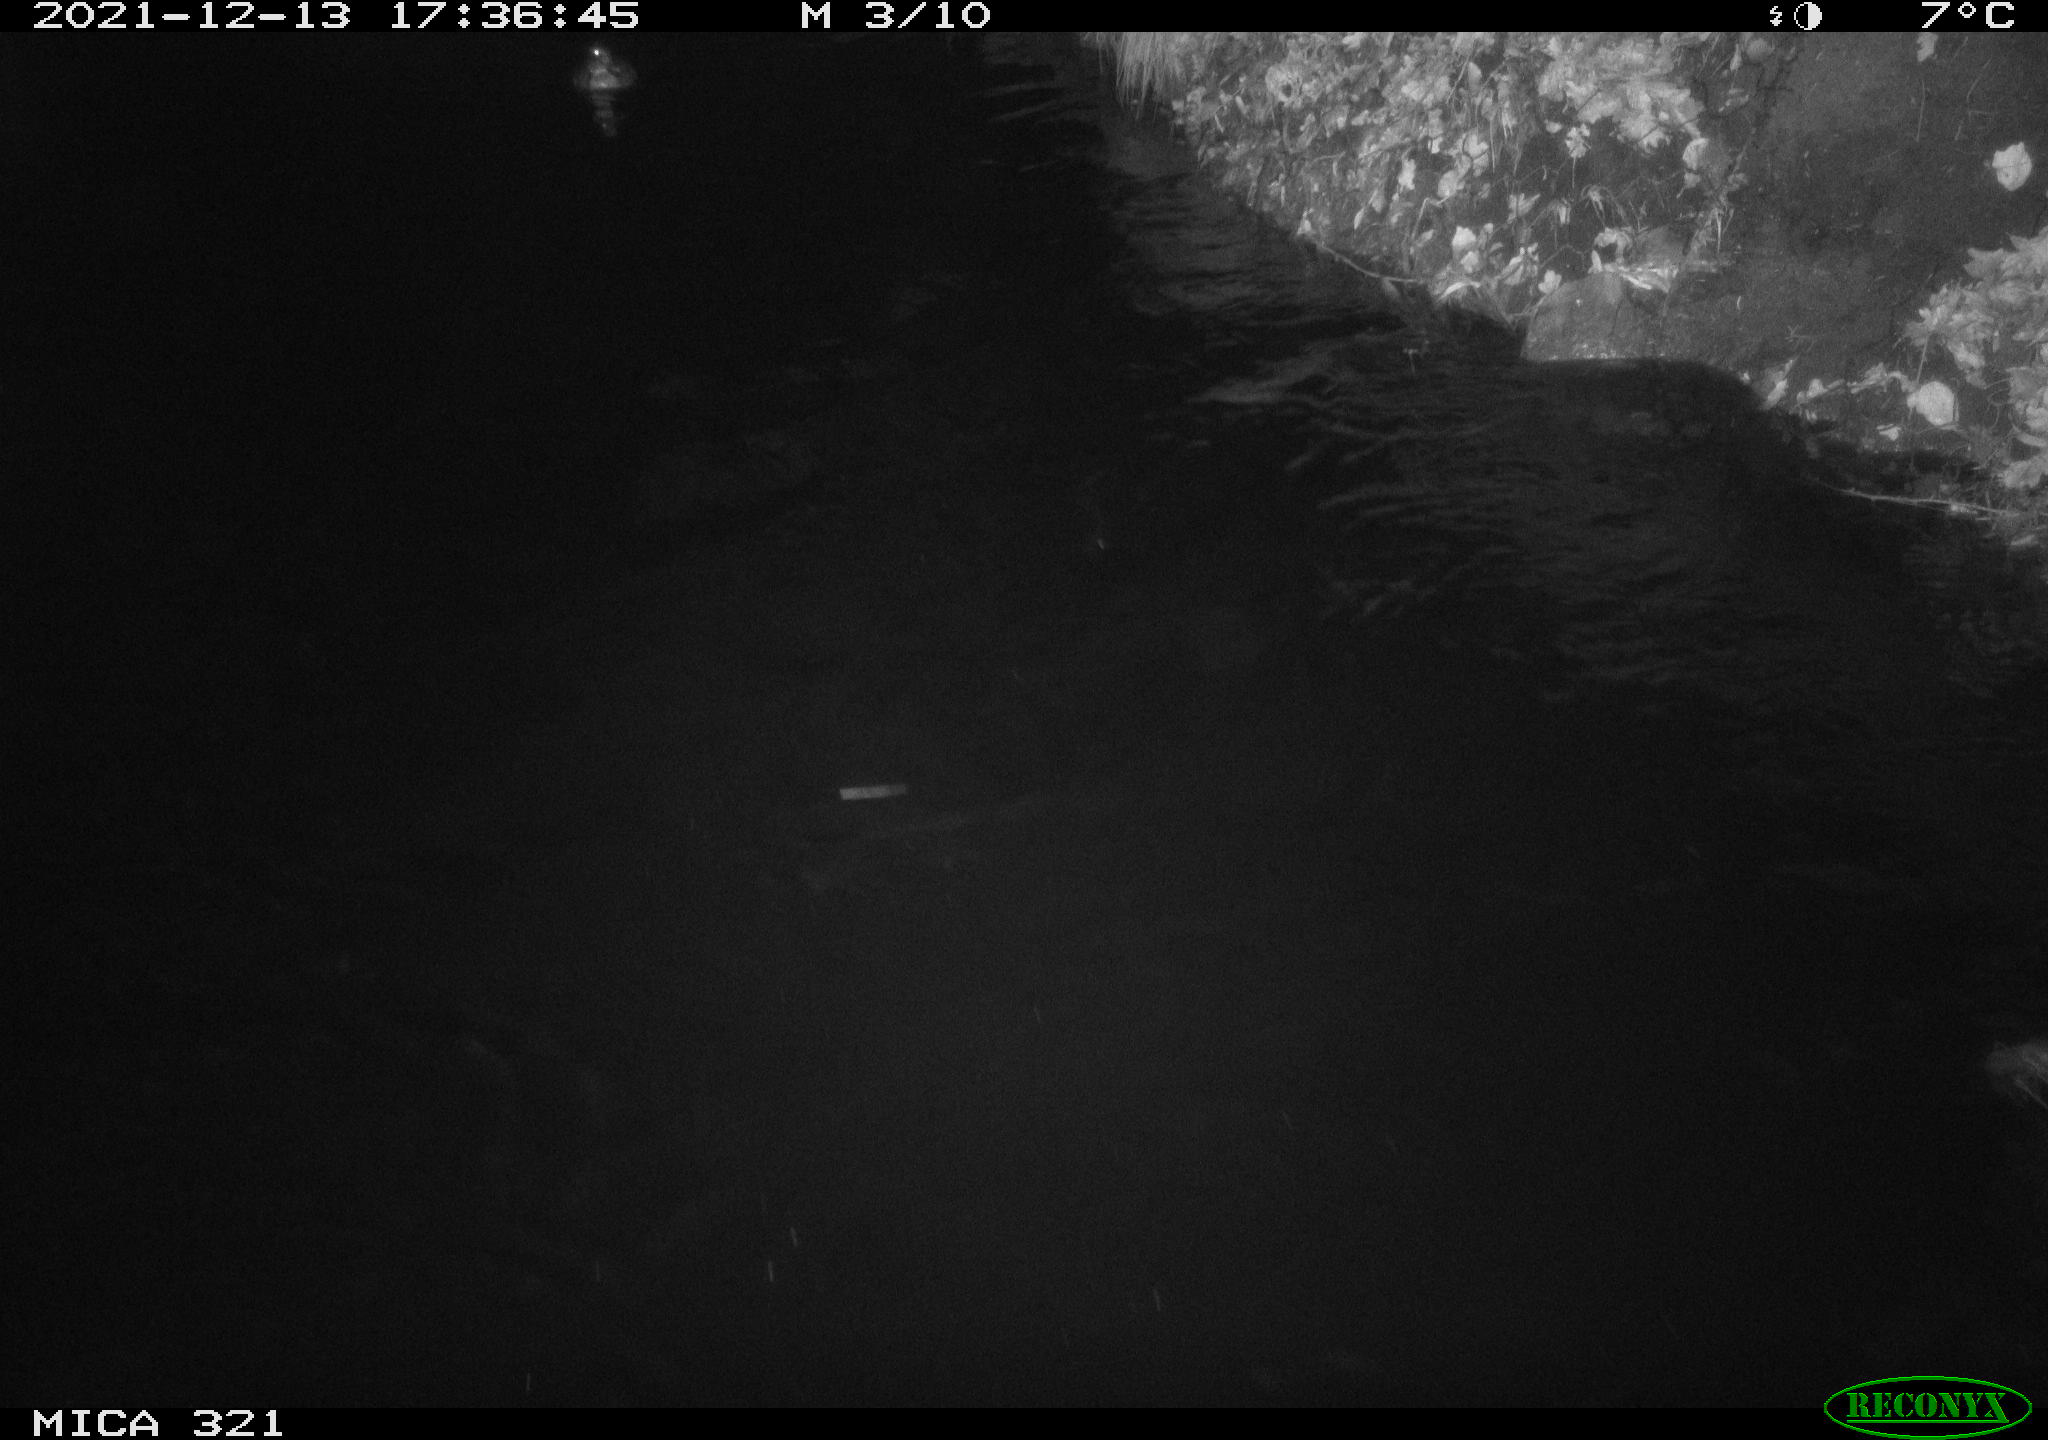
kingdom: Animalia
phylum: Chordata
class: Aves
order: Anseriformes
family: Anatidae
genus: Anas
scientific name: Anas
